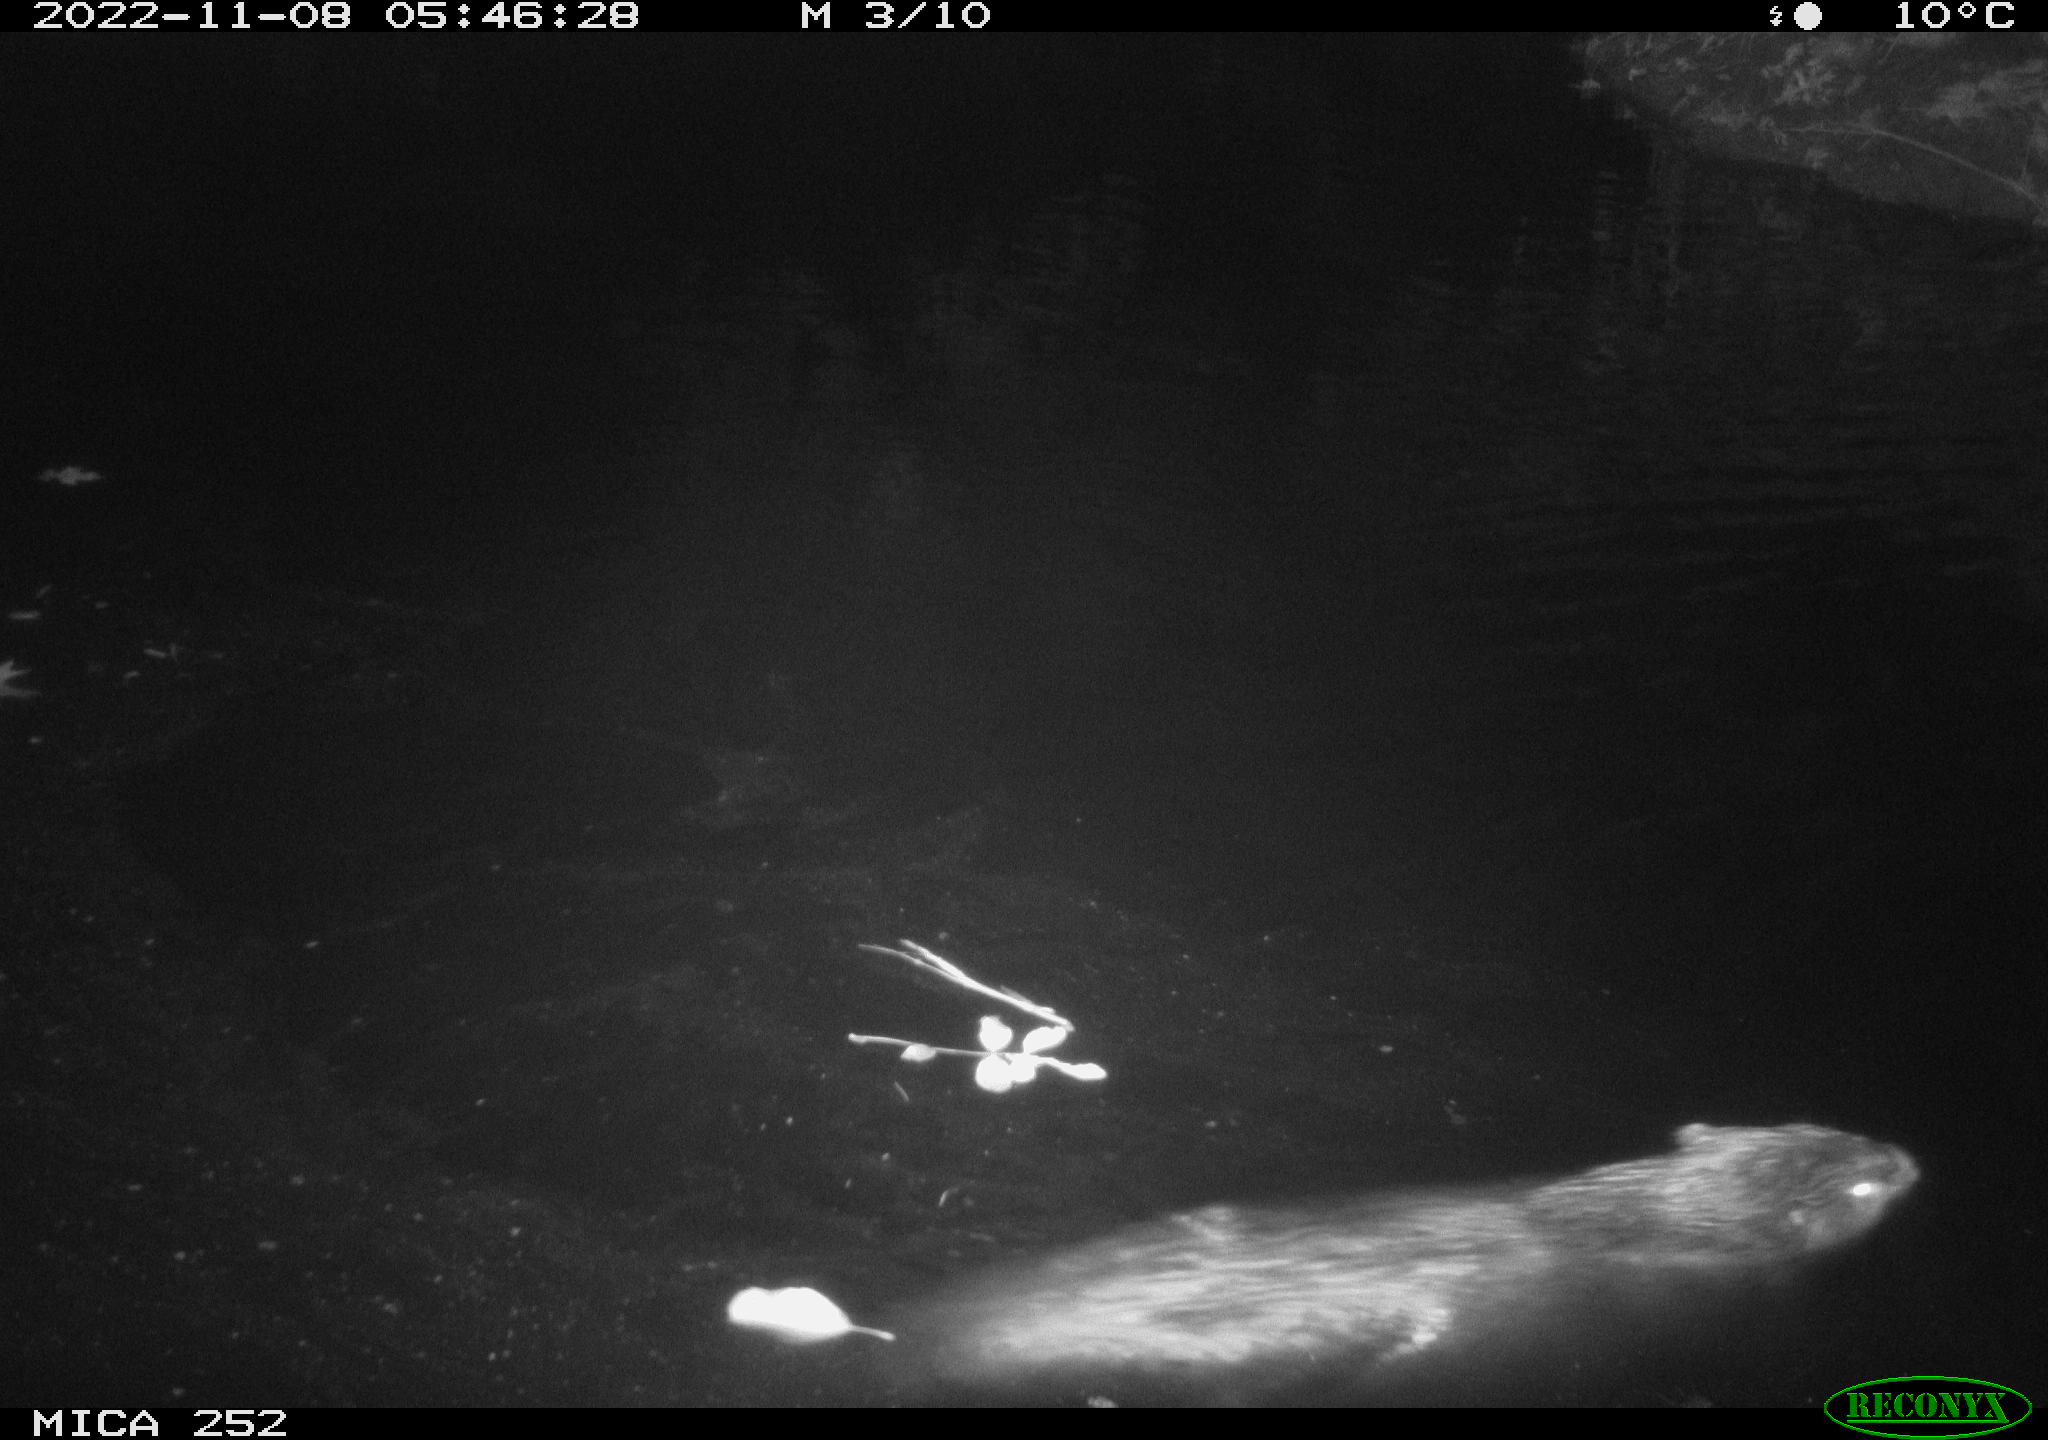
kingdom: Animalia
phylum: Chordata
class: Mammalia
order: Rodentia
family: Castoridae
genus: Castor
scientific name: Castor fiber
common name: Eurasian beaver
